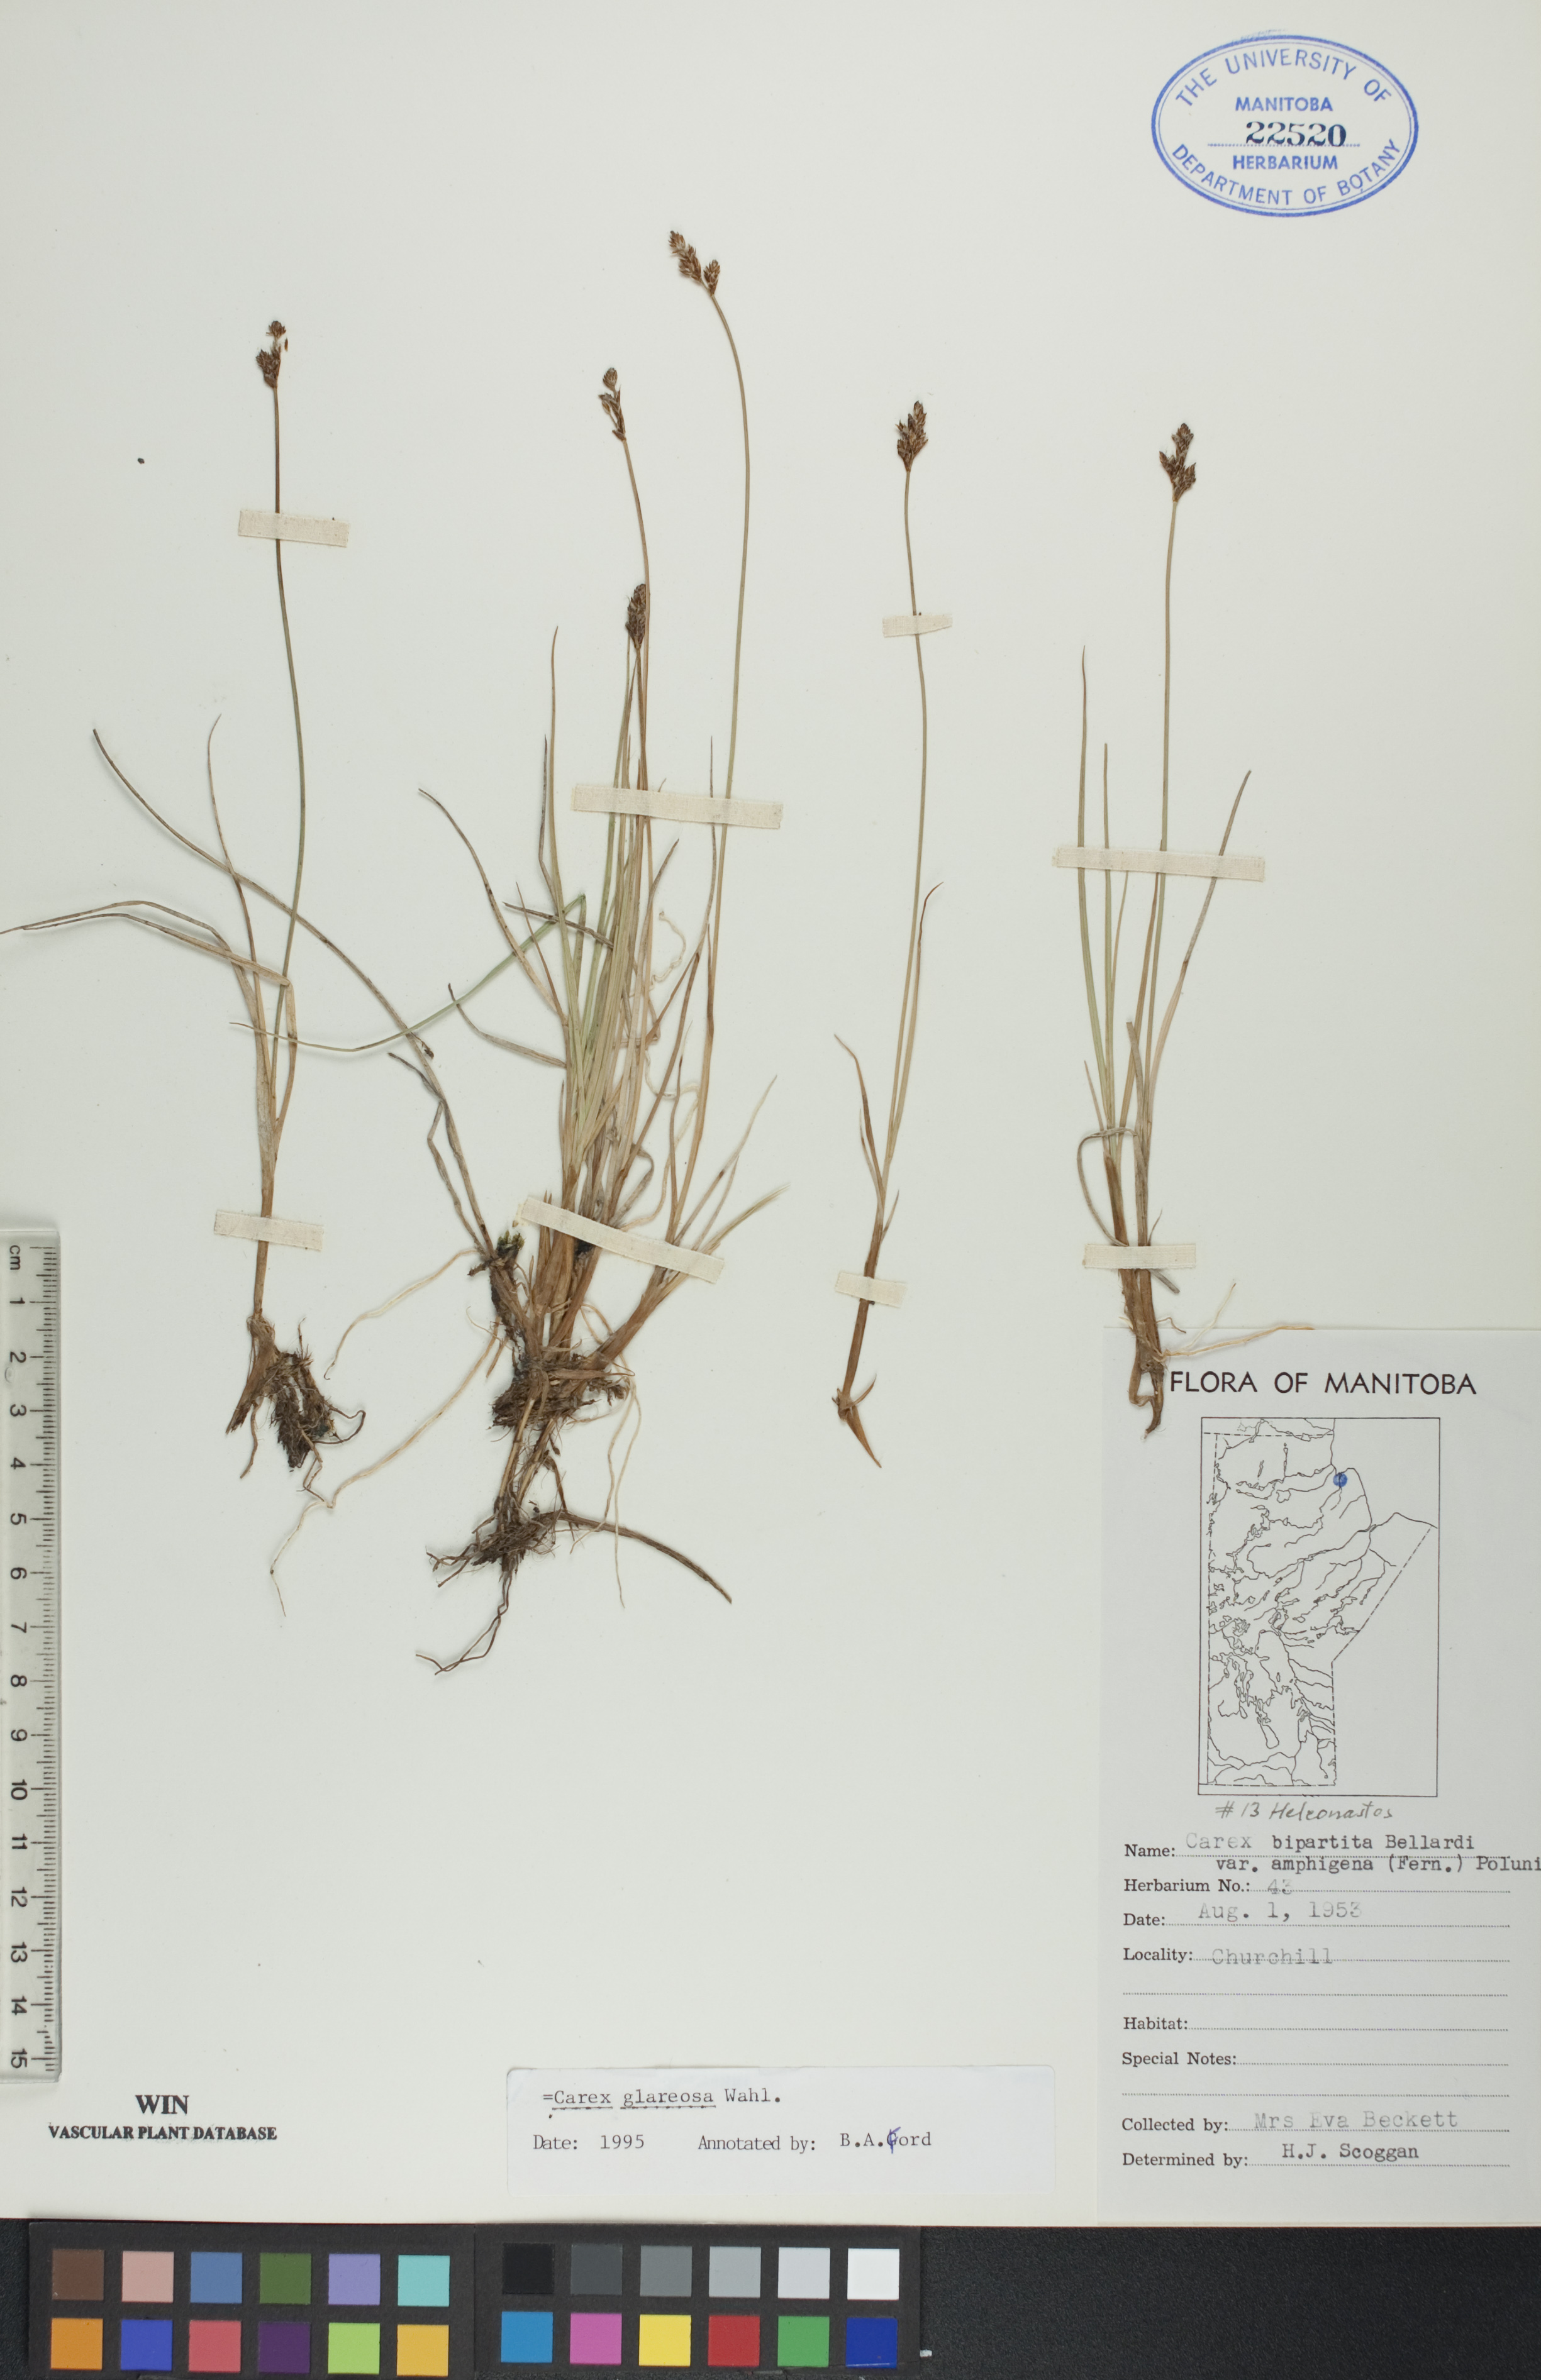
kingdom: Plantae
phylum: Tracheophyta
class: Liliopsida
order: Poales
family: Cyperaceae
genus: Carex
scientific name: Carex glareosa
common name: Clustered sedge
